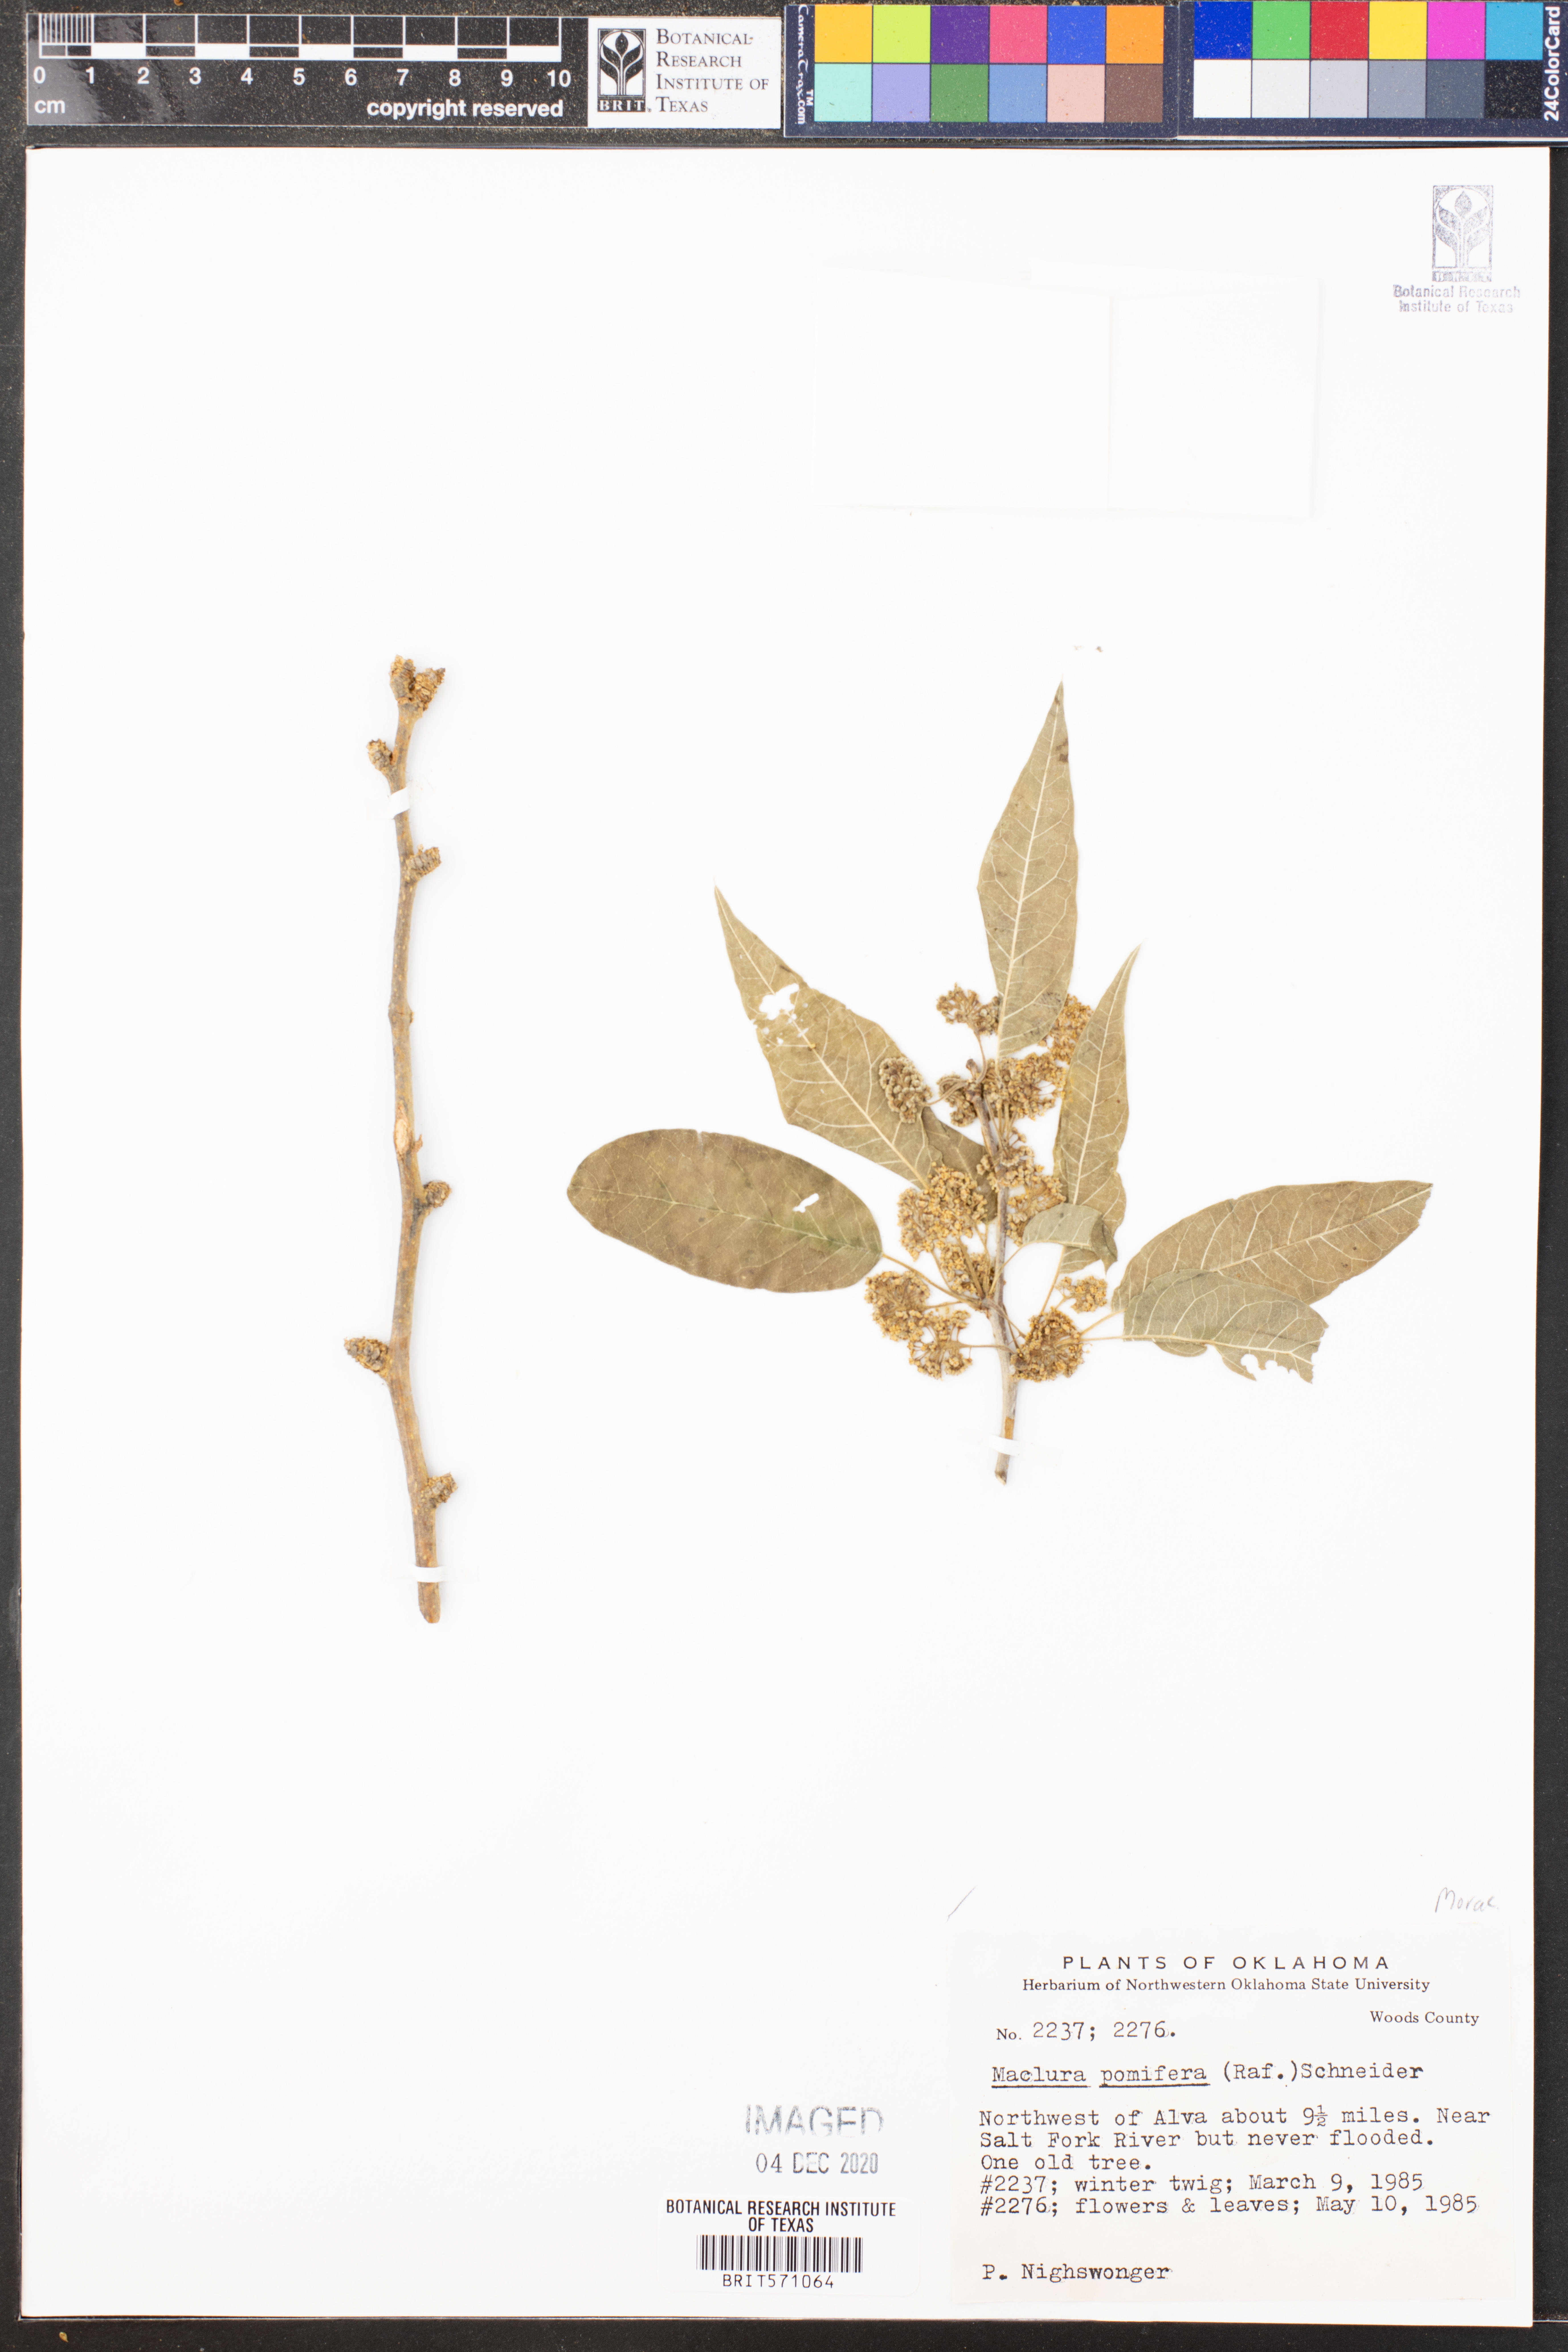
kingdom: Plantae
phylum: Tracheophyta
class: Magnoliopsida
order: Rosales
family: Moraceae
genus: Maclura
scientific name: Maclura pomifera
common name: Osage-orange
